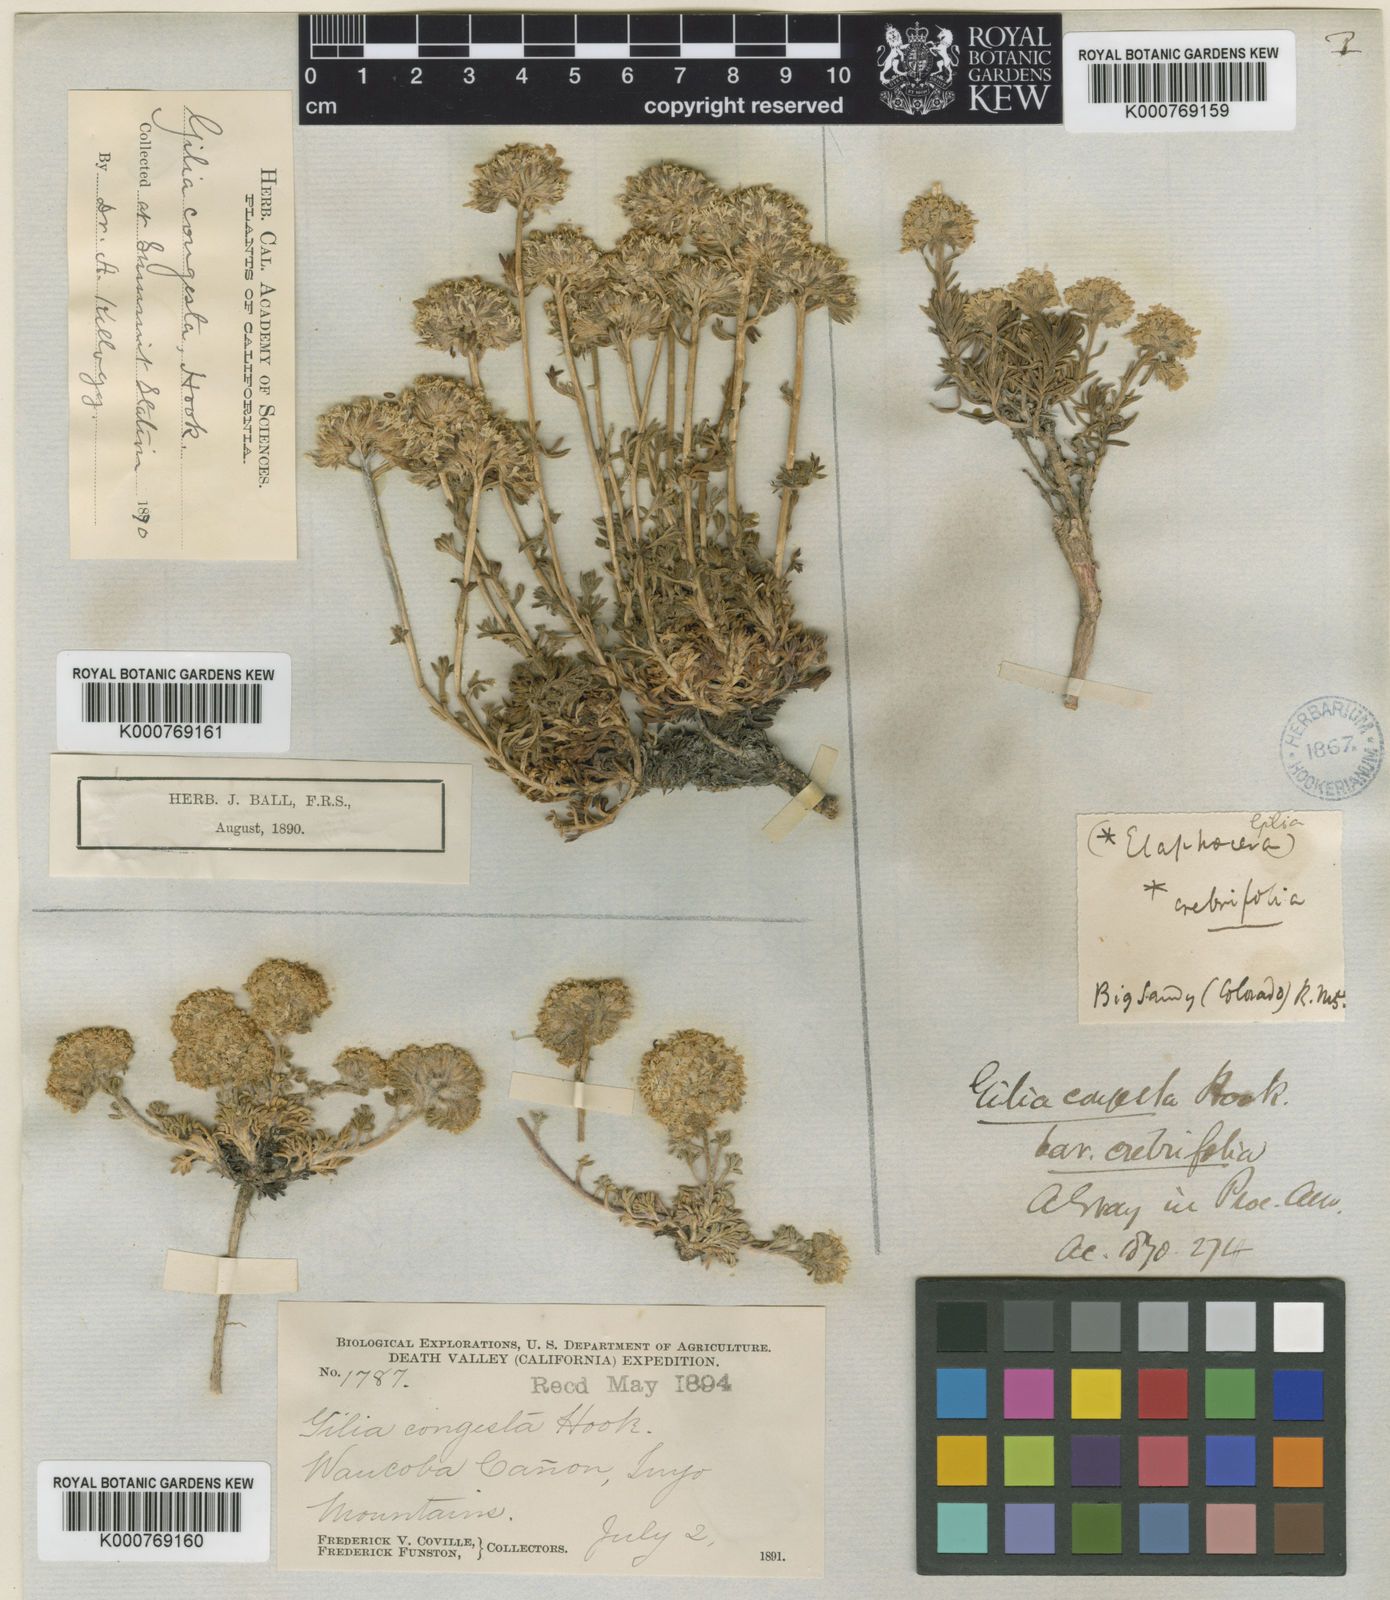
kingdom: Plantae
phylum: Tracheophyta
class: Magnoliopsida
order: Ericales
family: Polemoniaceae
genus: Ipomopsis
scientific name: Ipomopsis congesta
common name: Ball-head gilia
